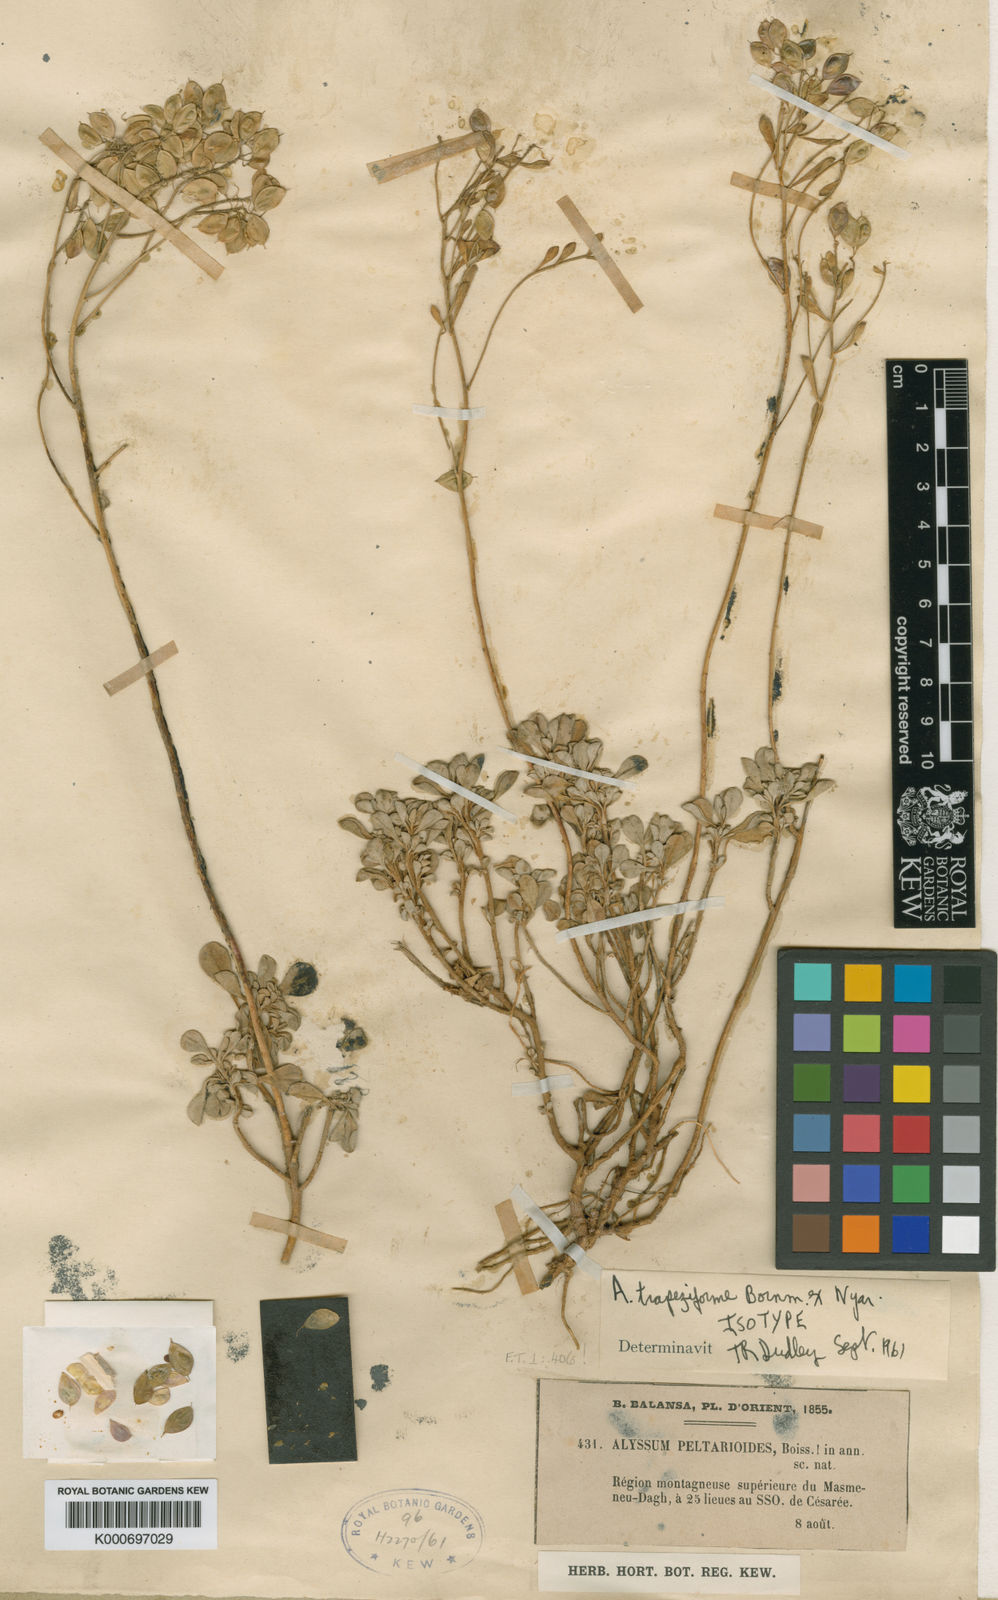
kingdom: Plantae
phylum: Tracheophyta
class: Magnoliopsida
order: Brassicales
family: Brassicaceae
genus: Odontarrhena
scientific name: Odontarrhena trapeziformis
